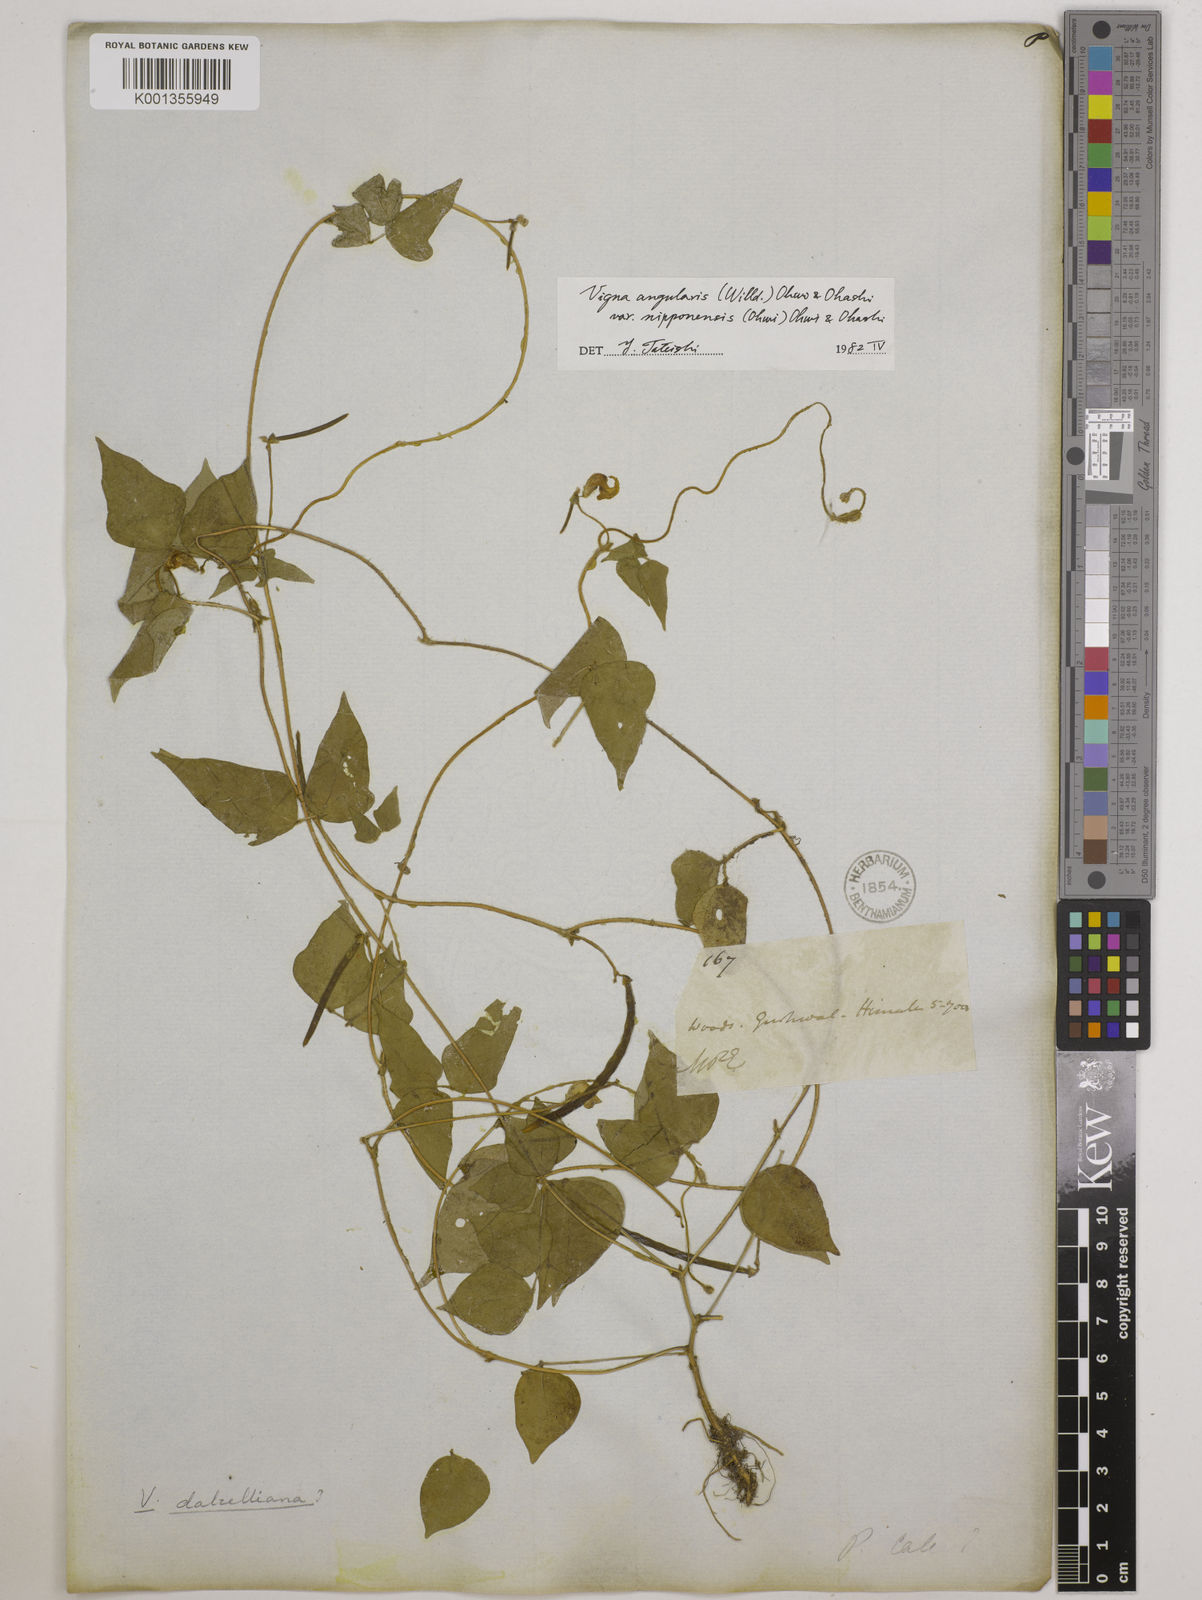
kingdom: Plantae
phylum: Tracheophyta
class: Magnoliopsida
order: Fabales
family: Fabaceae
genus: Vigna
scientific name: Vigna
